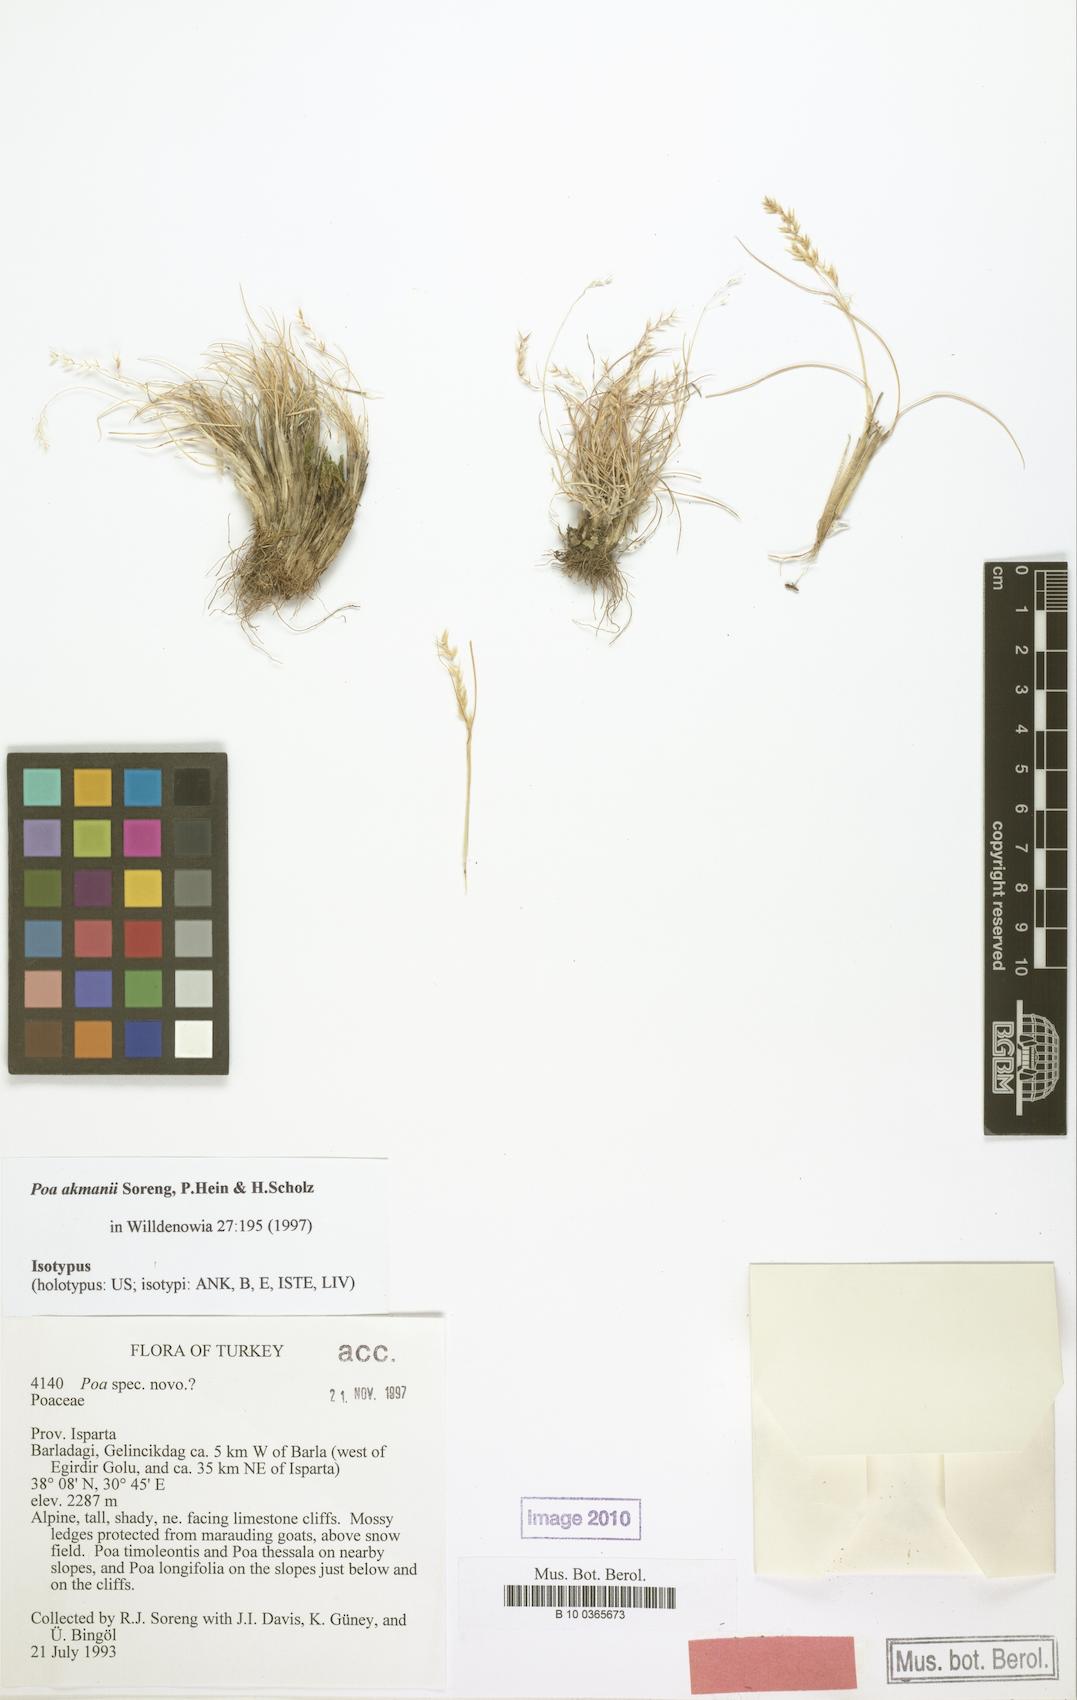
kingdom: Plantae
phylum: Tracheophyta
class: Liliopsida
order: Poales
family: Poaceae
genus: Poa
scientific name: Poa akmanii
